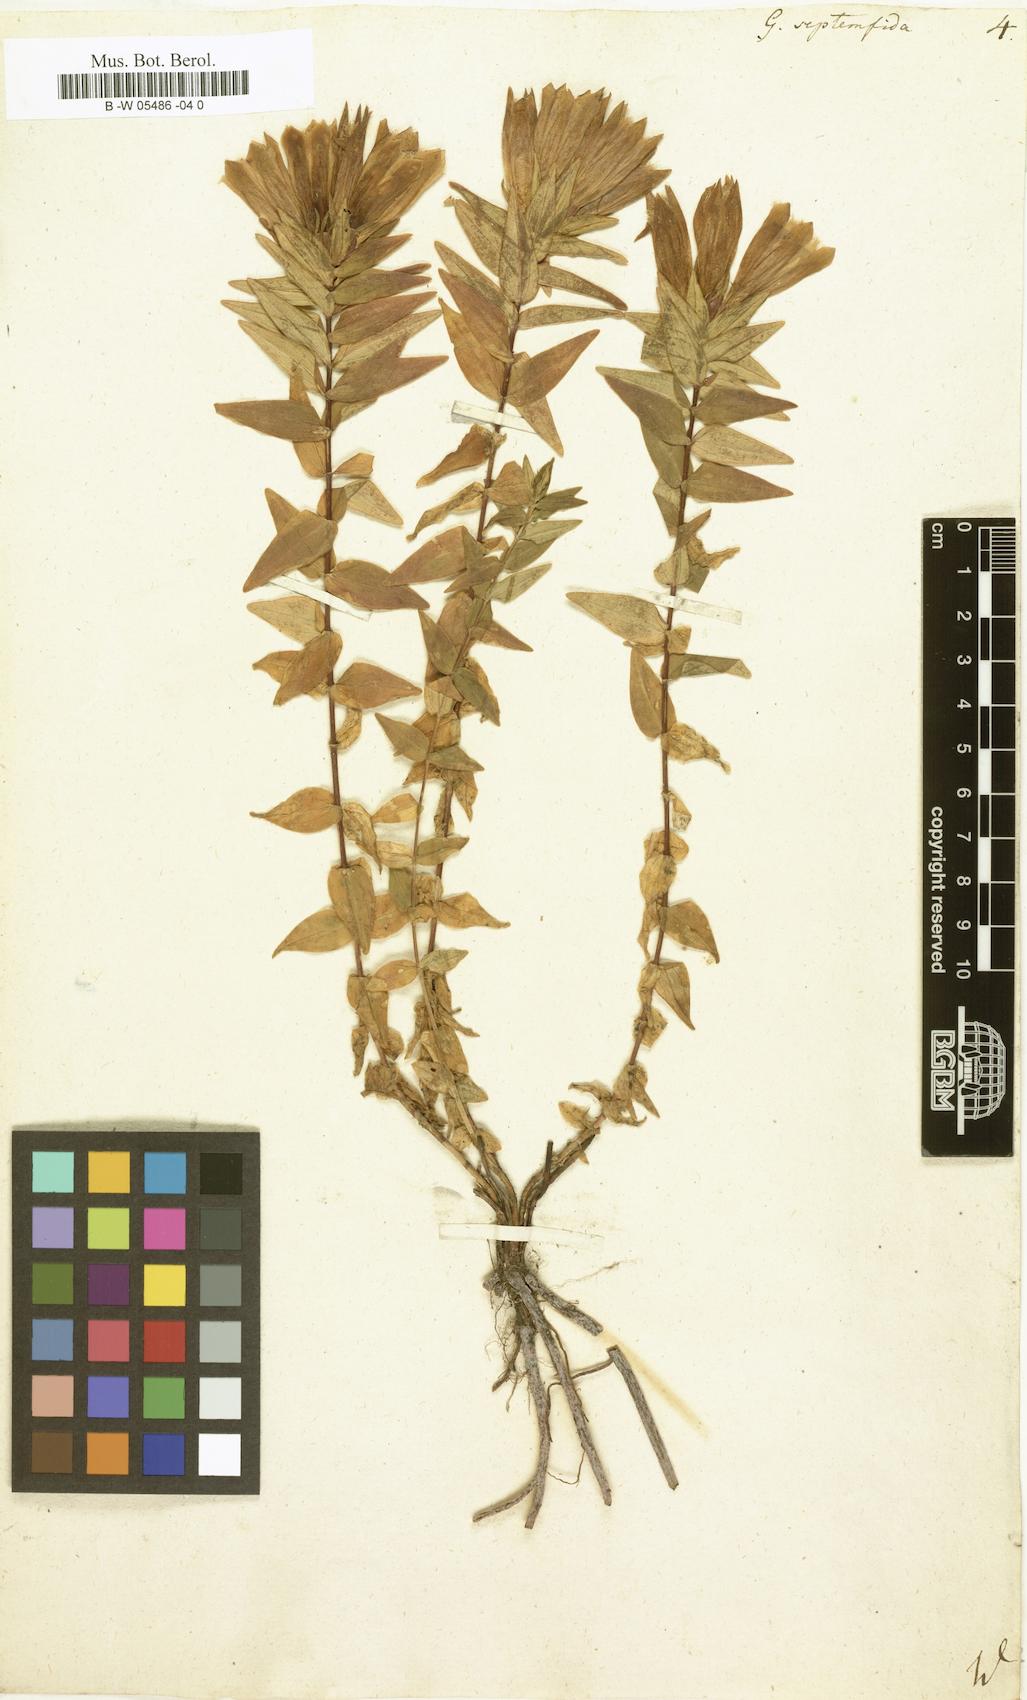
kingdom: Plantae
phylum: Tracheophyta
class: Magnoliopsida
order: Gentianales
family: Gentianaceae
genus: Gentiana
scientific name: Gentiana septemfida
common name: Crested gentian
